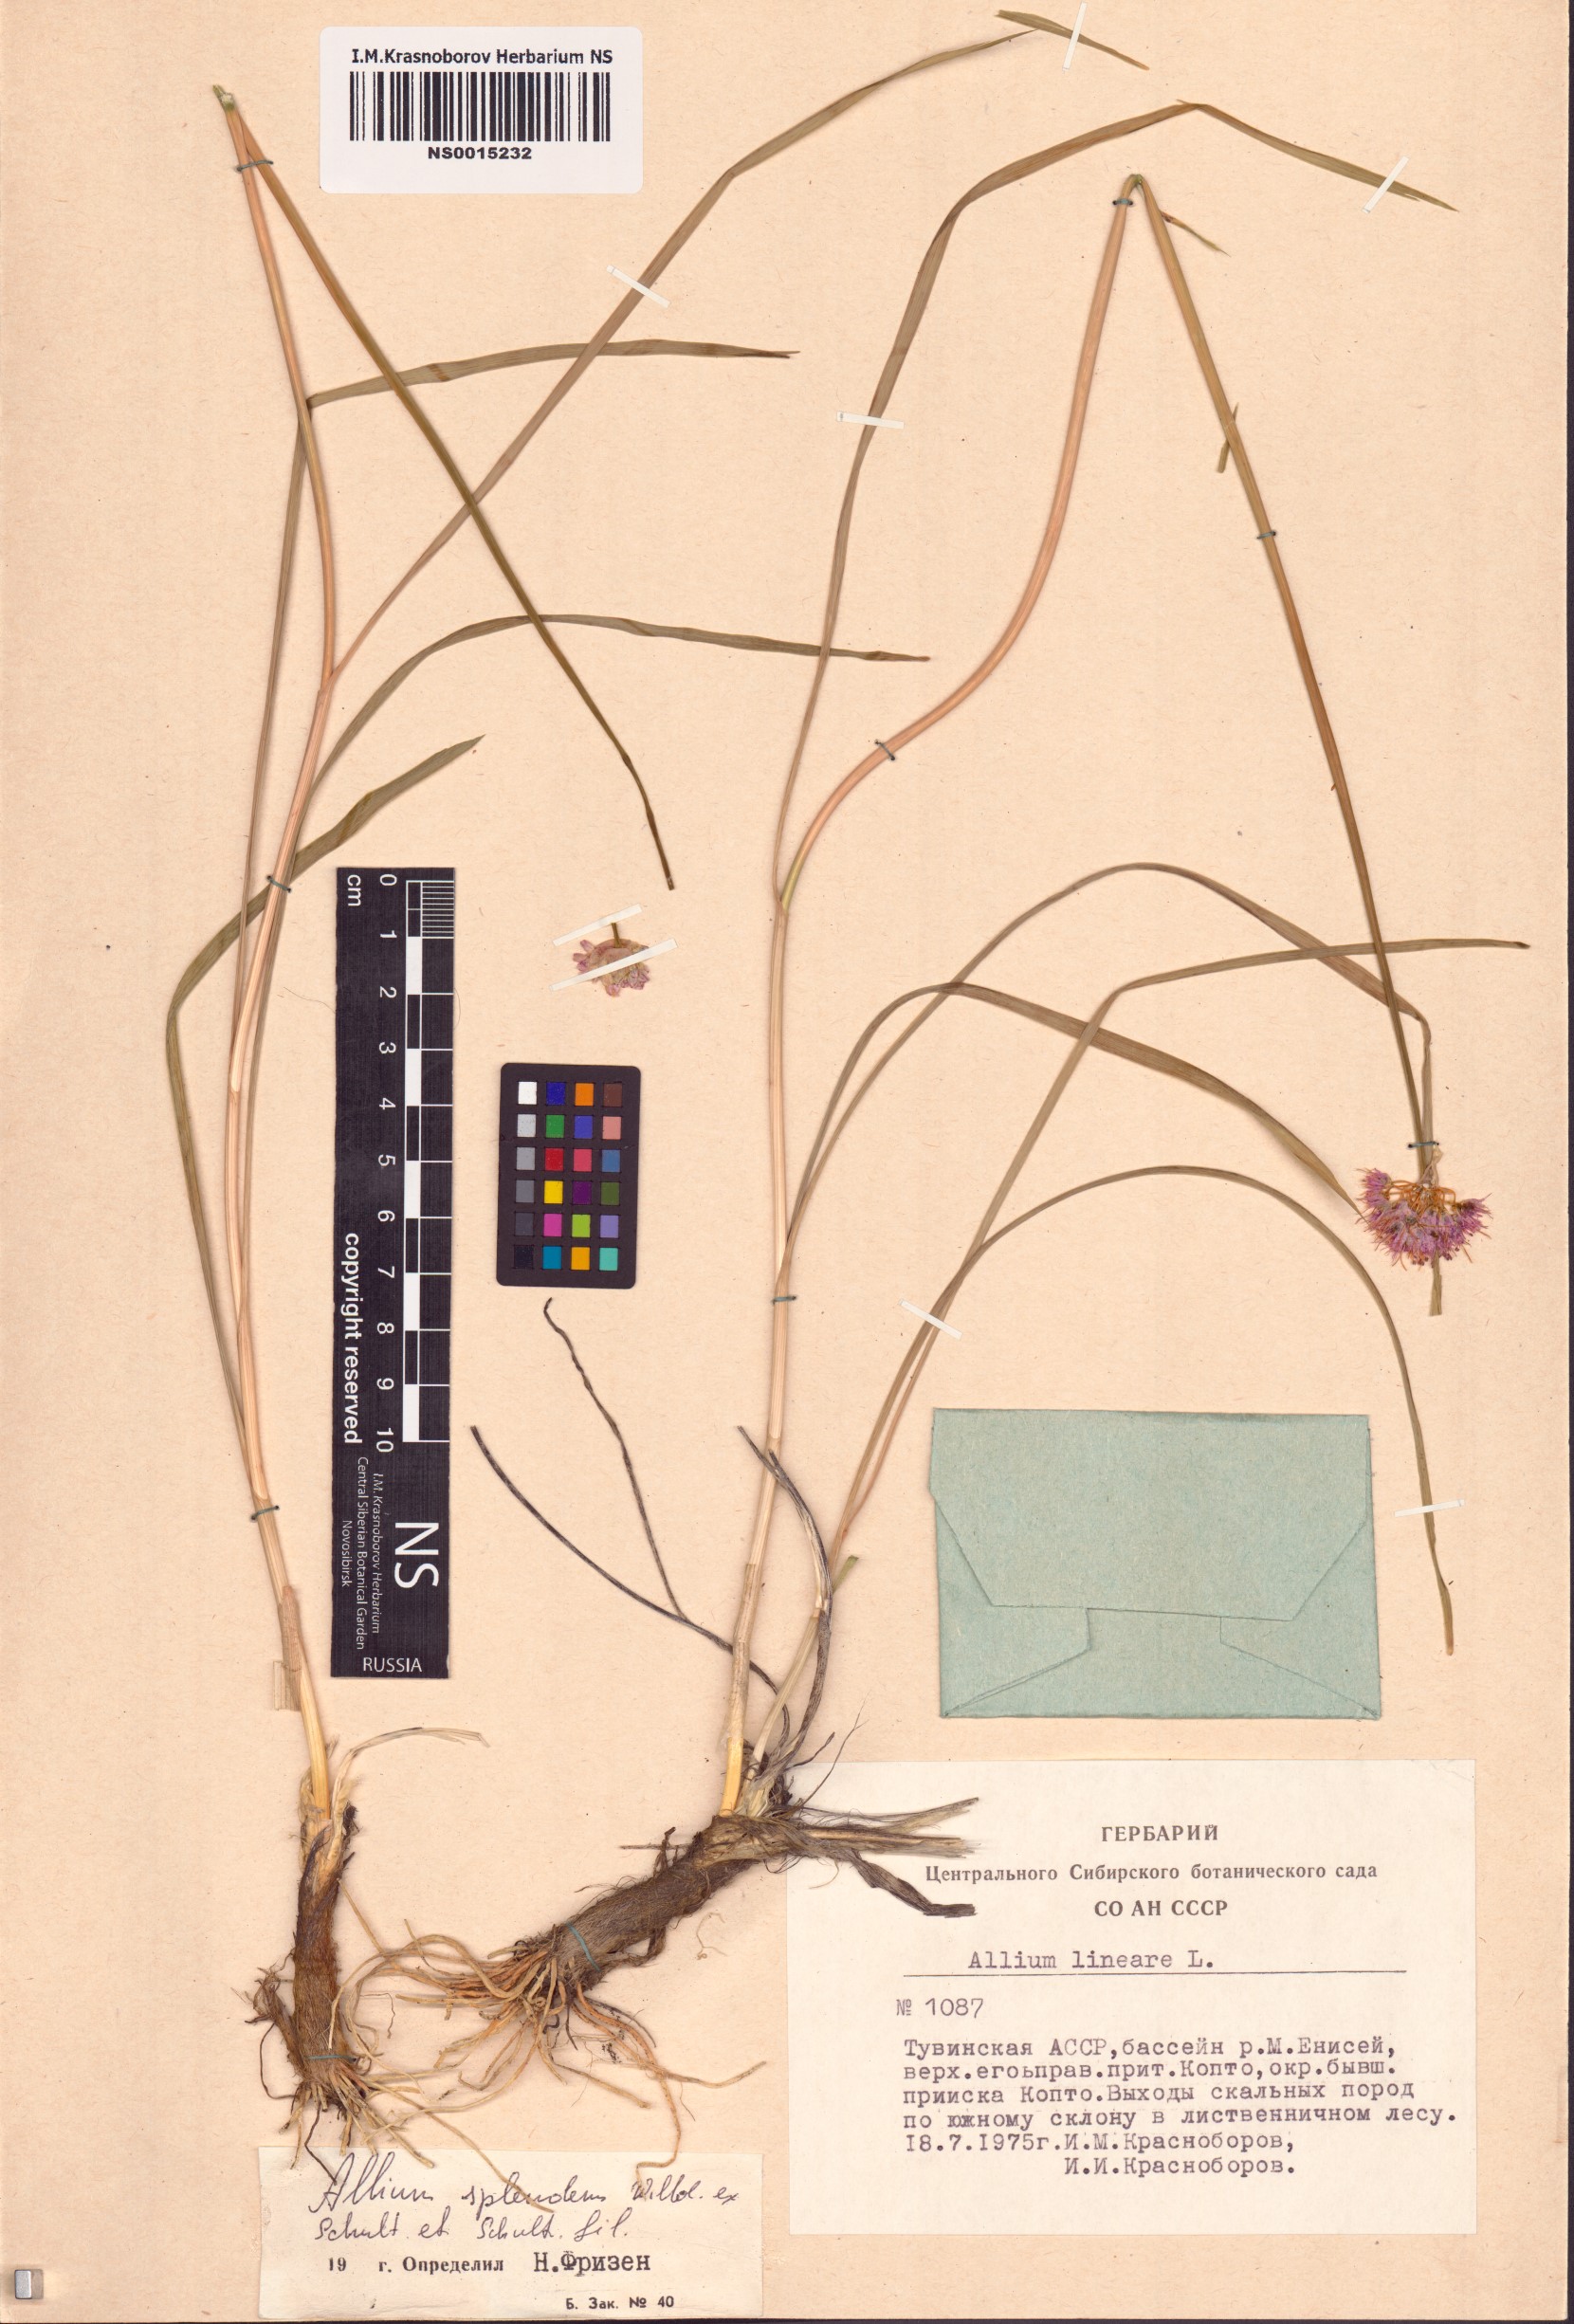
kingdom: Plantae
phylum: Tracheophyta
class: Liliopsida
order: Asparagales
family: Amaryllidaceae
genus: Allium
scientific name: Allium splendens
